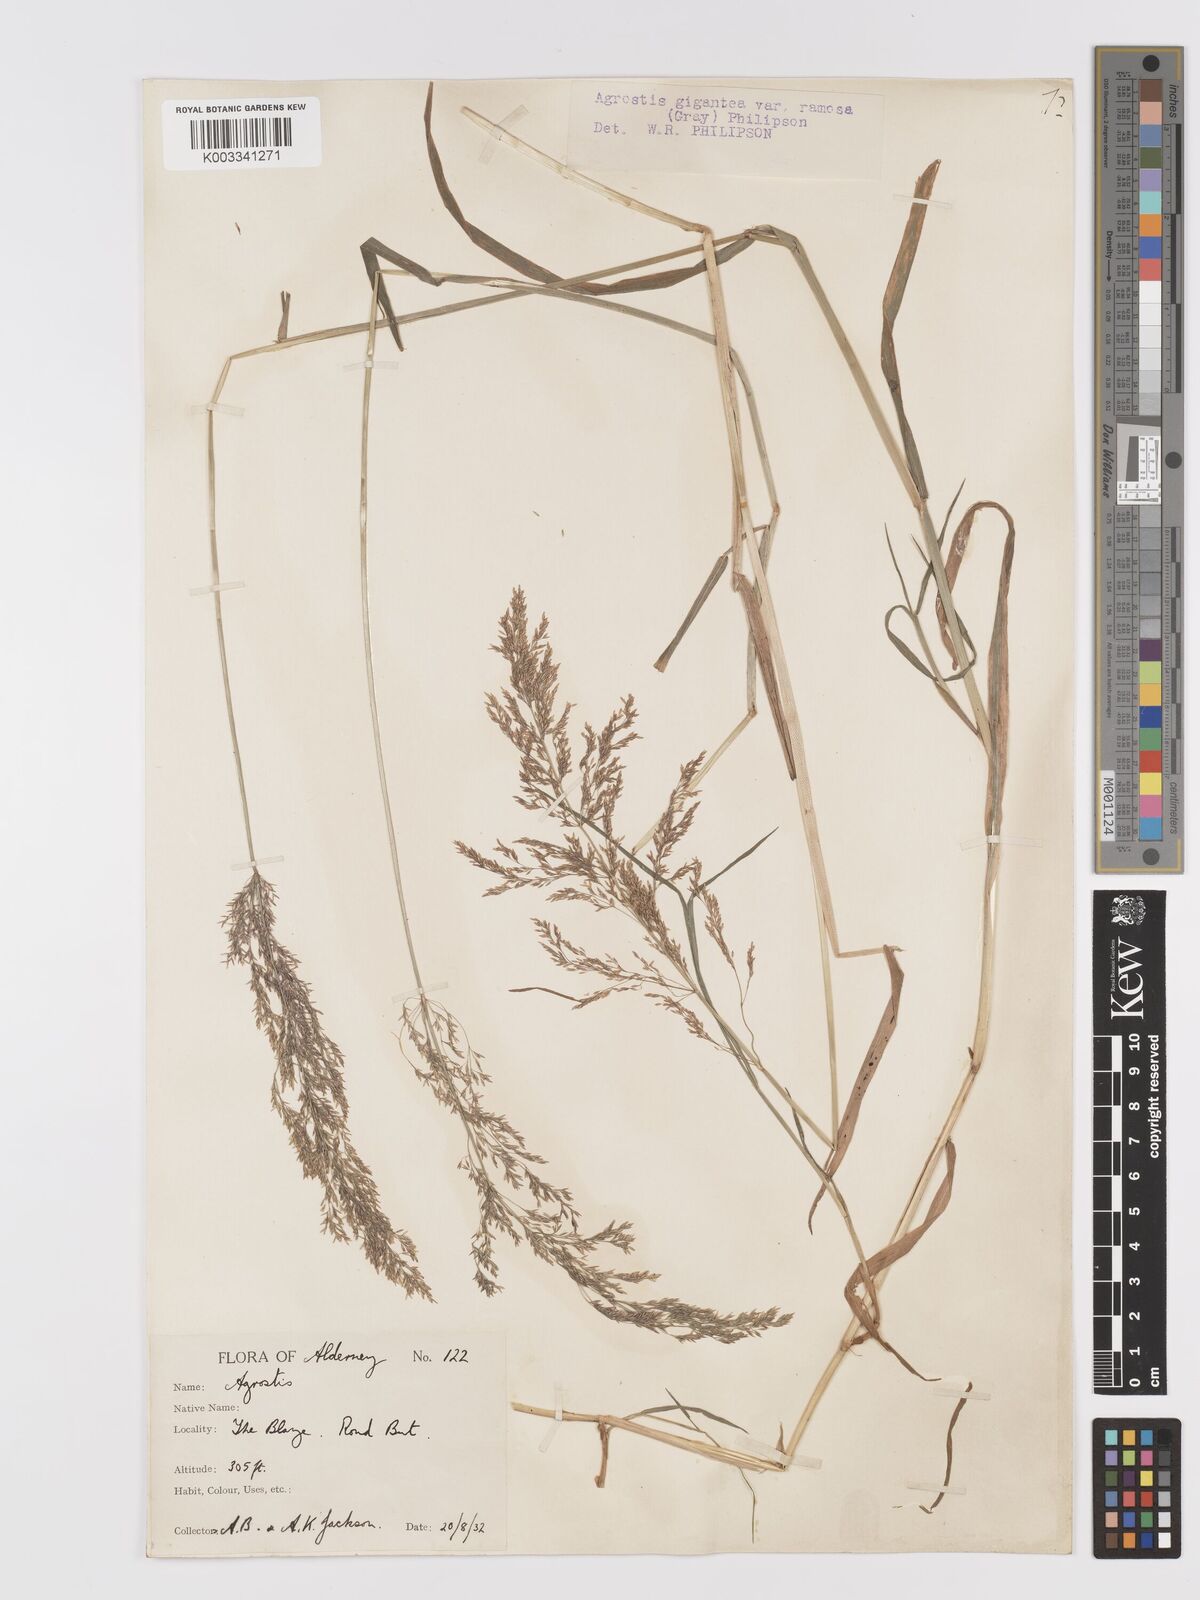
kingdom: Plantae
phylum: Tracheophyta
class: Liliopsida
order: Poales
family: Poaceae
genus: Agrostis
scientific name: Agrostis gigantea
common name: Black bent
